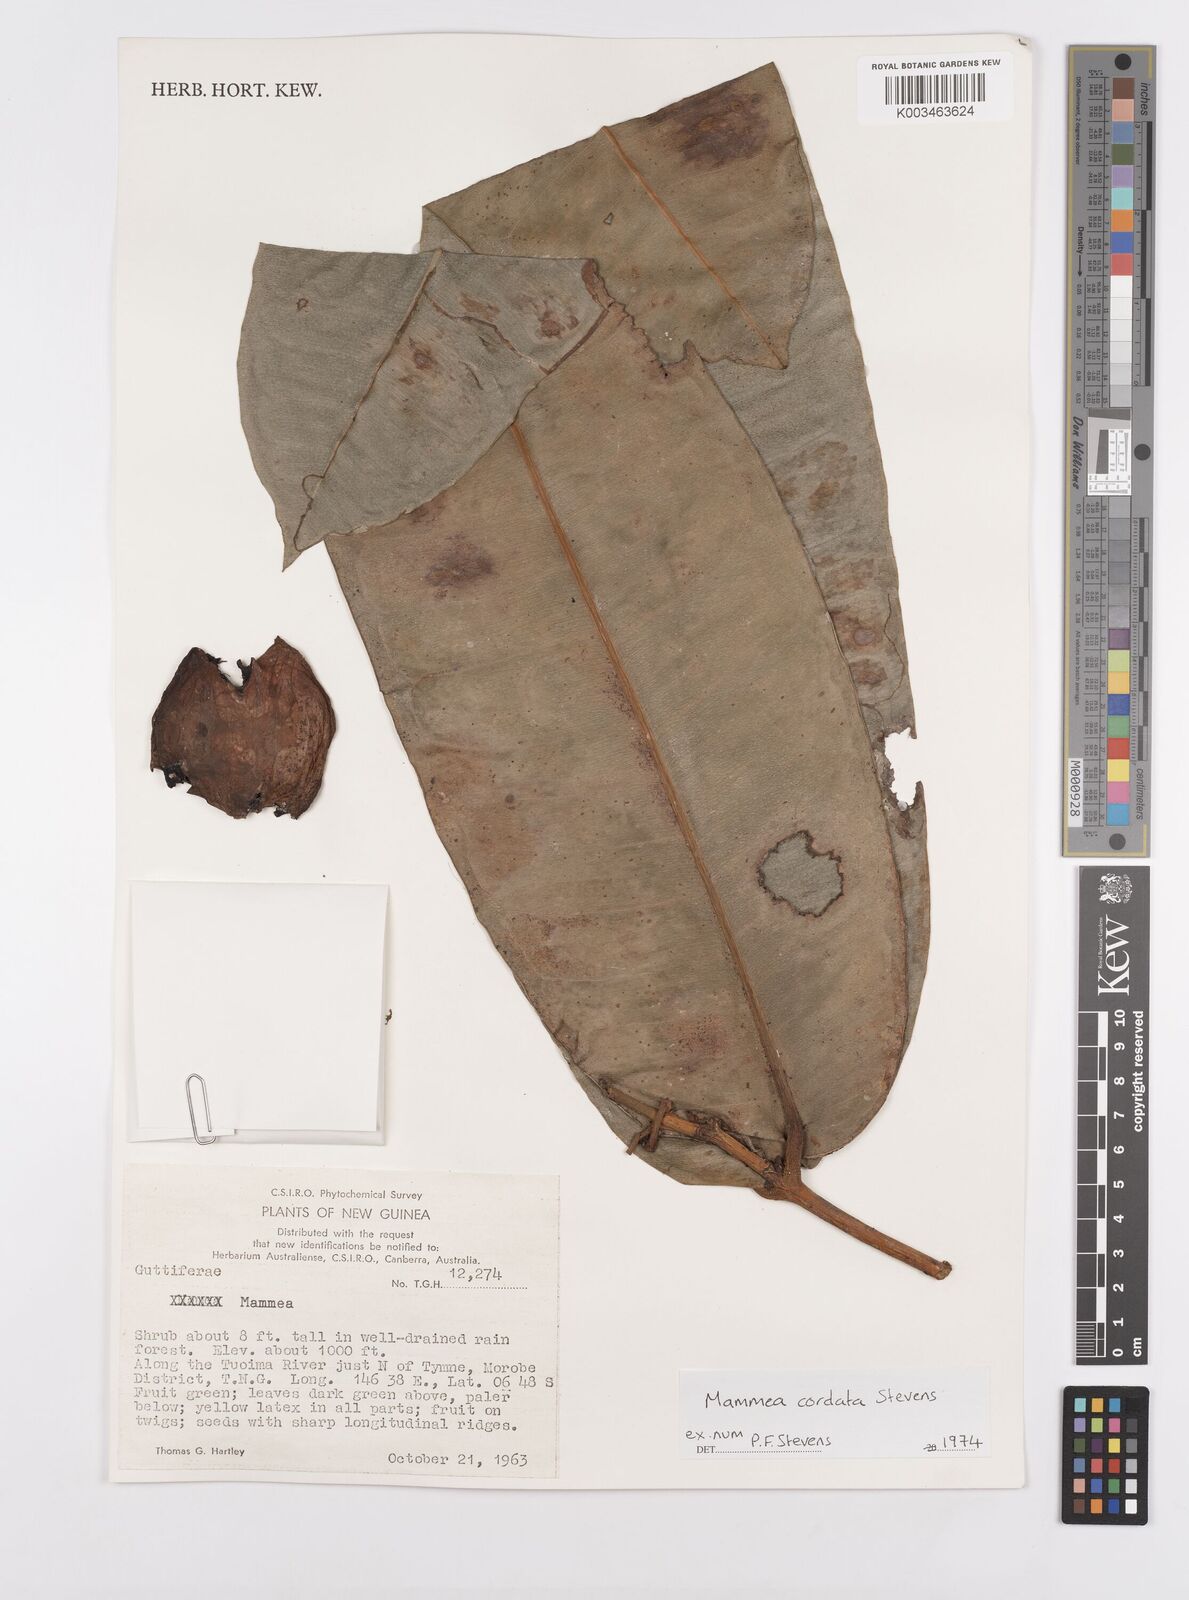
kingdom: Plantae
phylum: Tracheophyta
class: Magnoliopsida
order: Malpighiales
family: Calophyllaceae
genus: Mammea
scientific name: Mammea cordata
